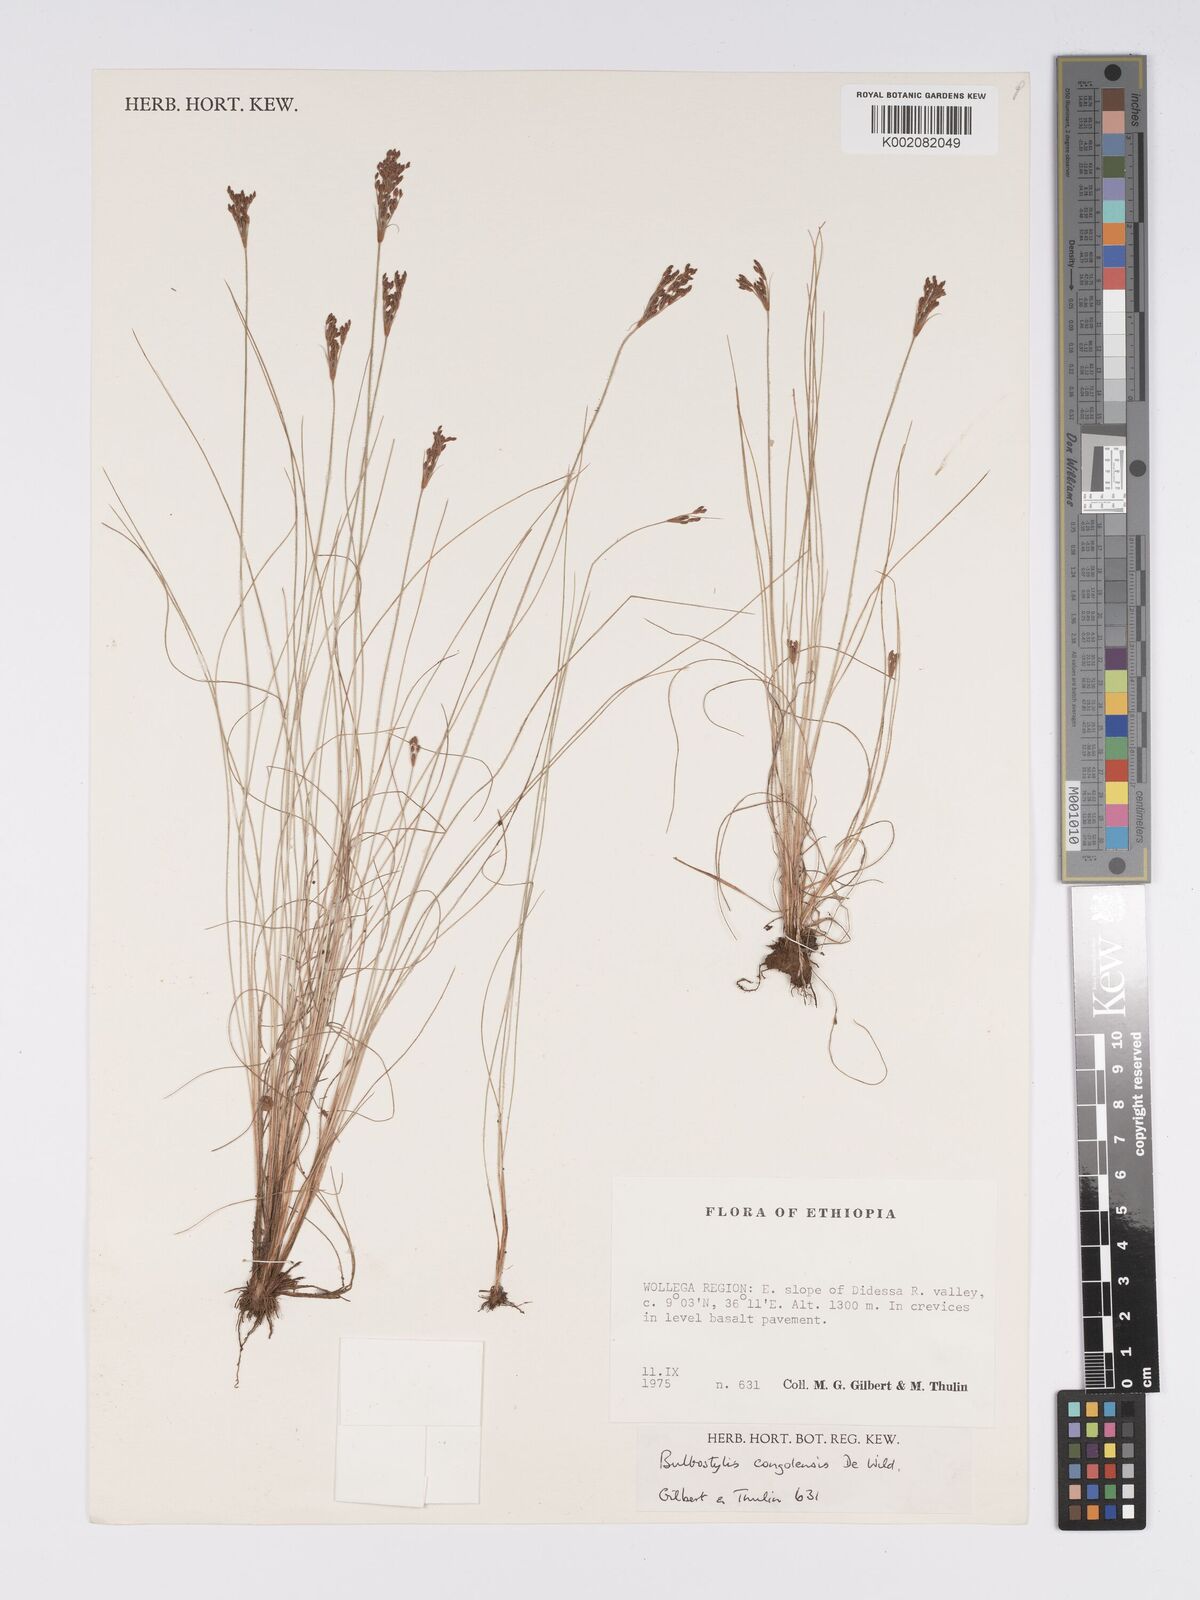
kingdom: Plantae
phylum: Tracheophyta
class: Liliopsida
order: Poales
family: Cyperaceae
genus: Bulbostylis
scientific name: Bulbostylis congolensis
